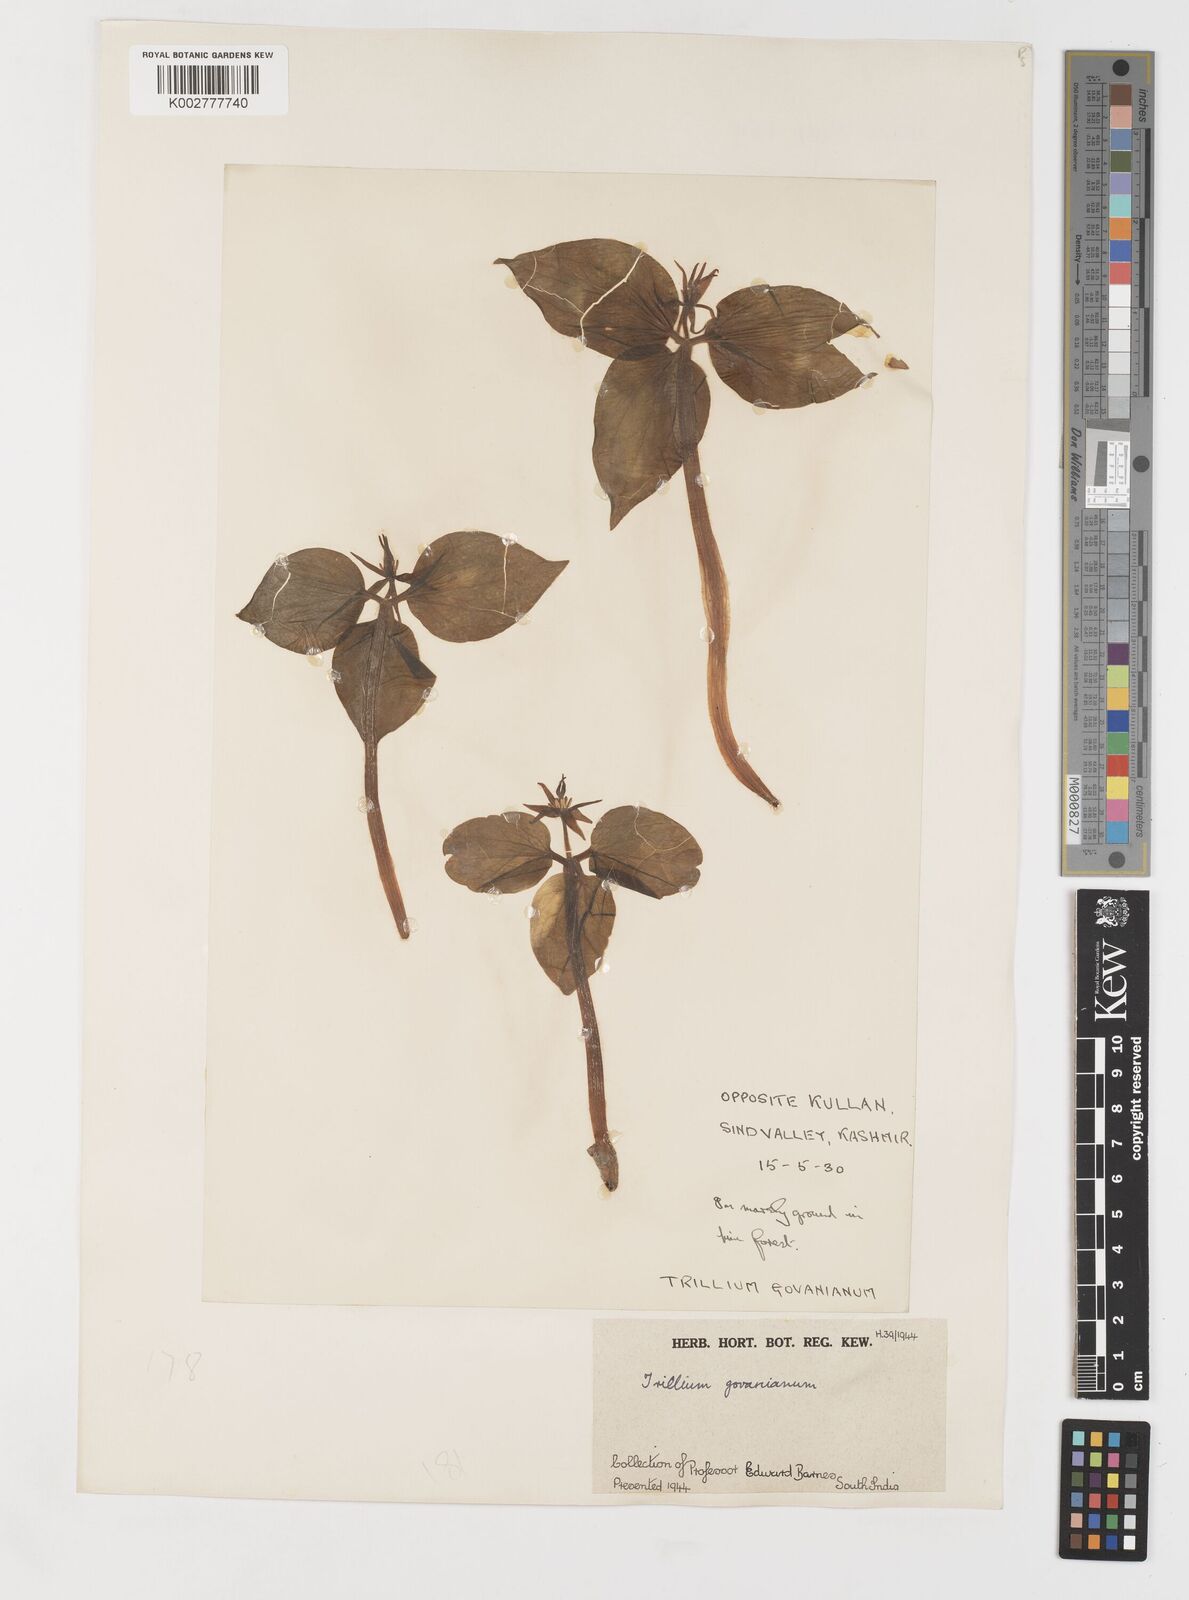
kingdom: Plantae
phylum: Tracheophyta
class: Liliopsida
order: Liliales
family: Melanthiaceae
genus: Trillium
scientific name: Trillium govanianum
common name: Himalayan trillium
